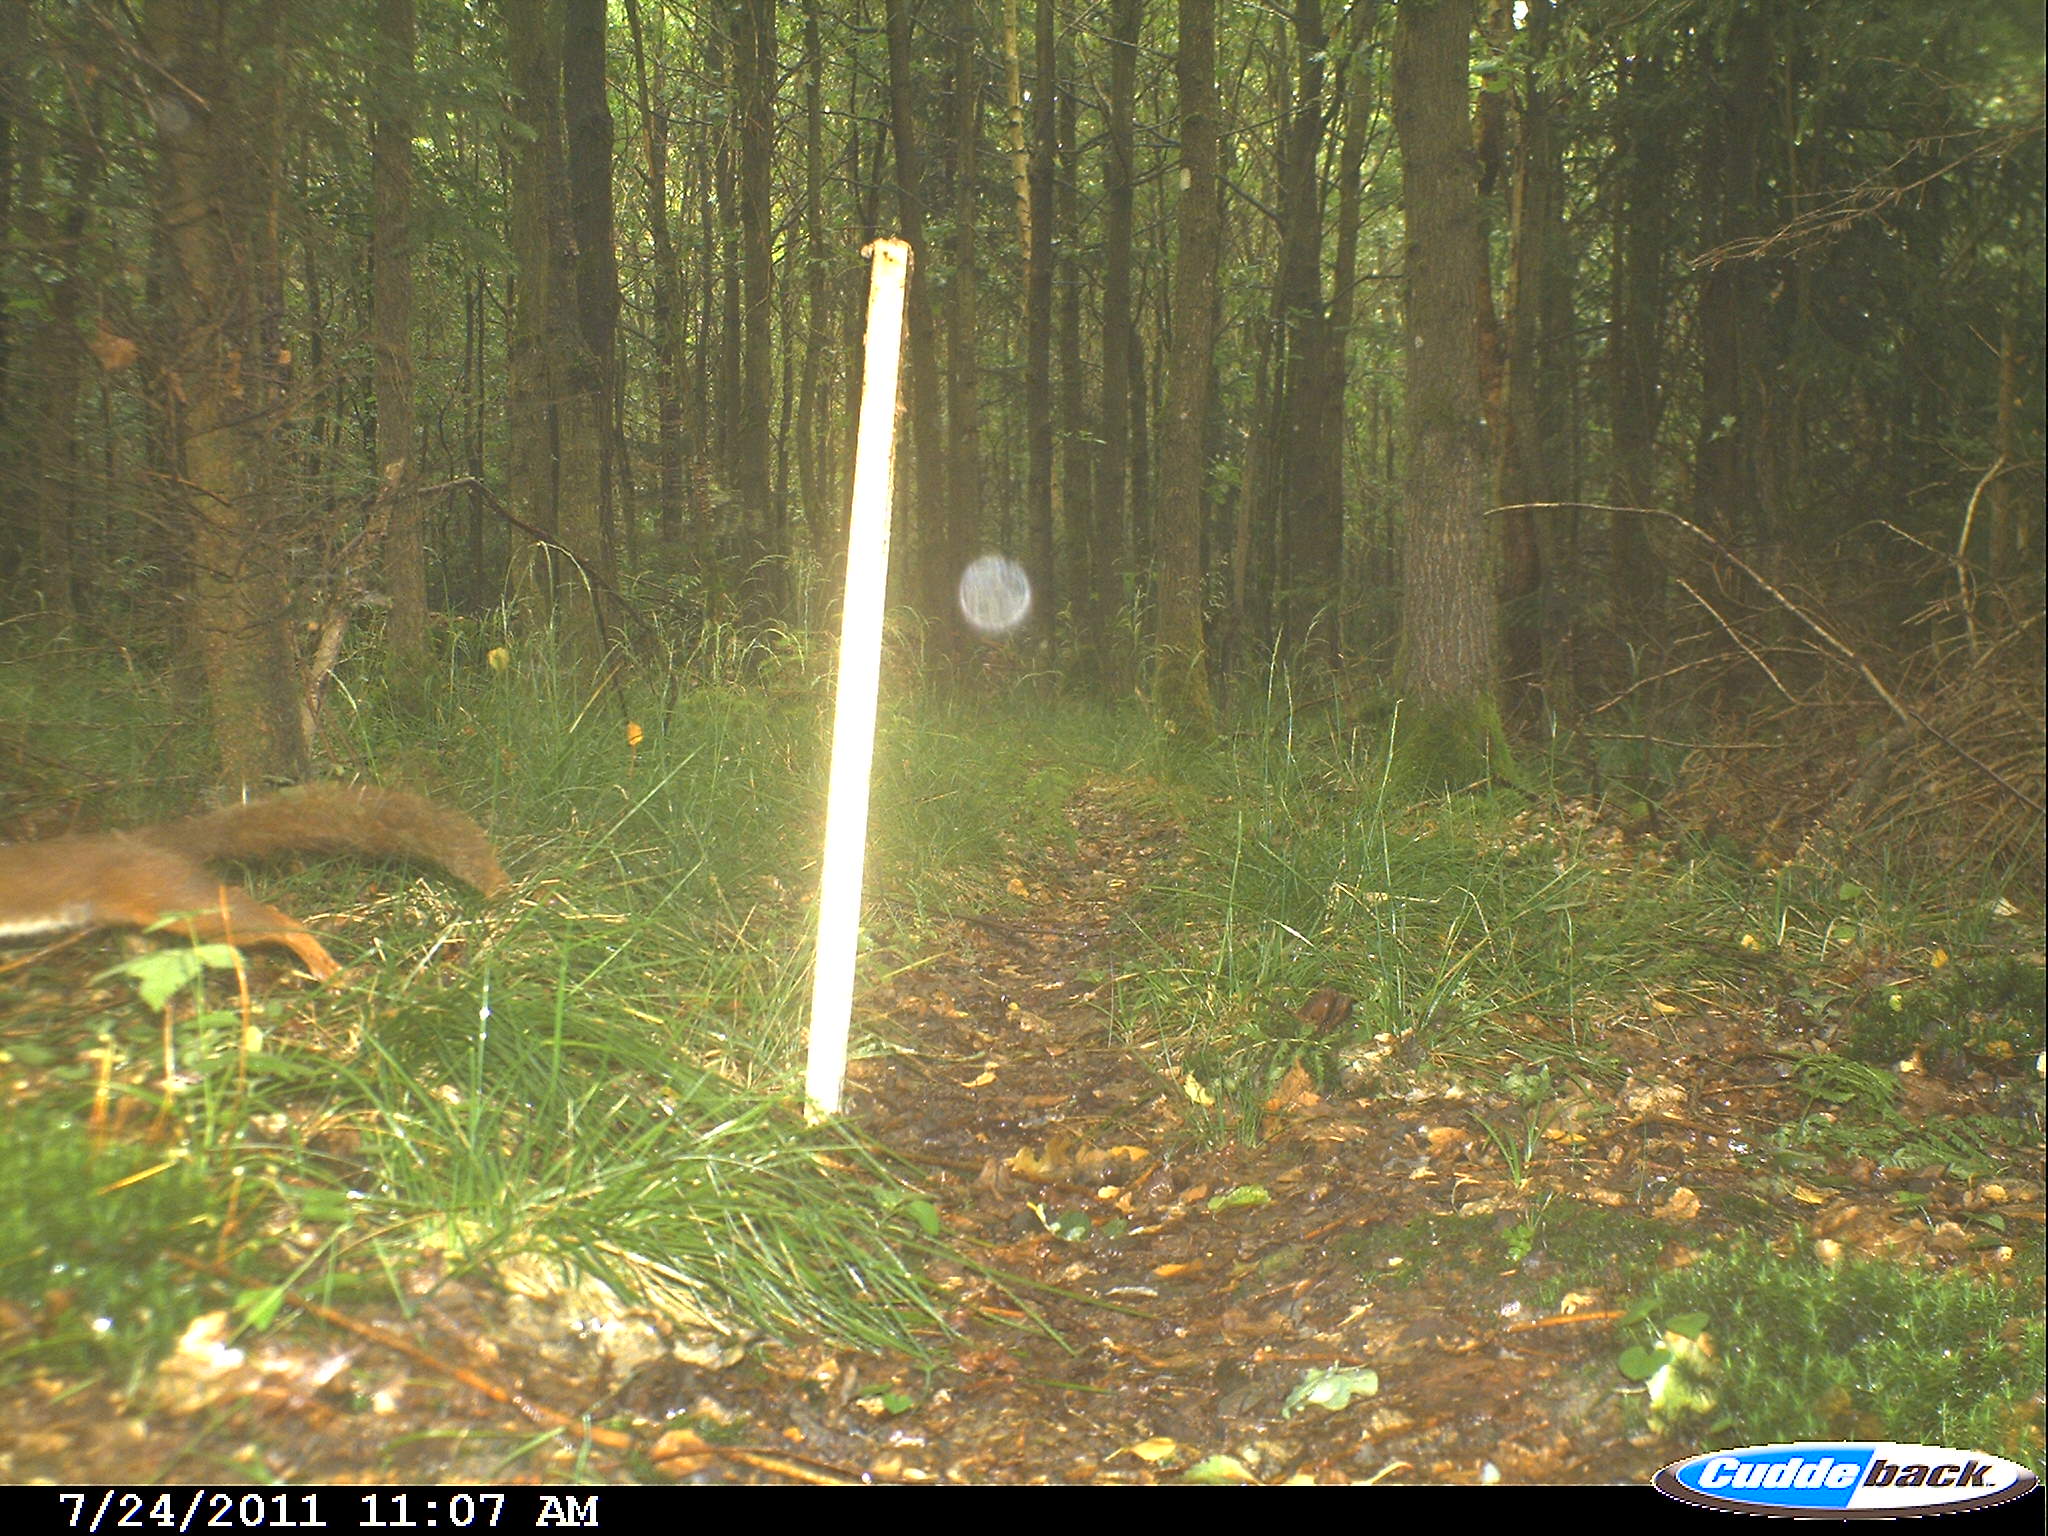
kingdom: Animalia
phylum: Chordata
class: Mammalia
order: Rodentia
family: Sciuridae
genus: Sciurus
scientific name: Sciurus vulgaris
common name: Eurasian red squirrel
